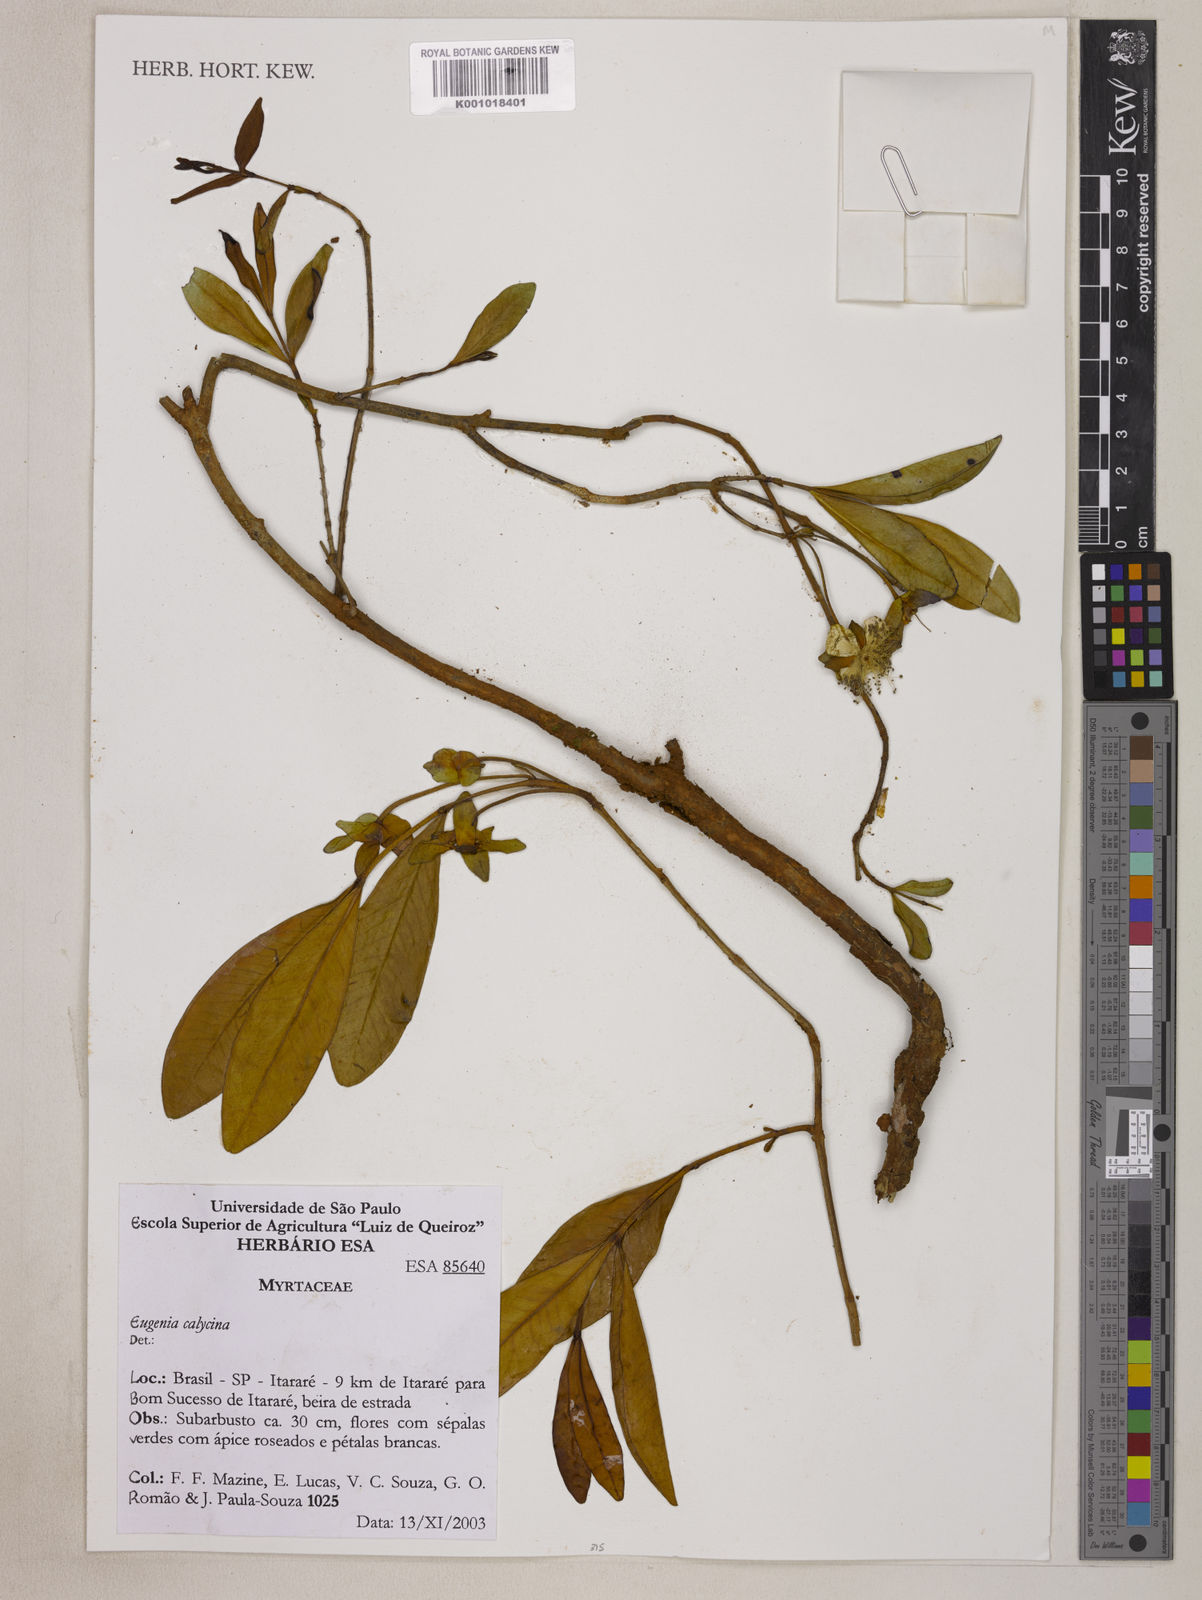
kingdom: Plantae
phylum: Tracheophyta
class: Magnoliopsida
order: Myrtales
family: Myrtaceae
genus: Eugenia
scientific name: Eugenia calycina
